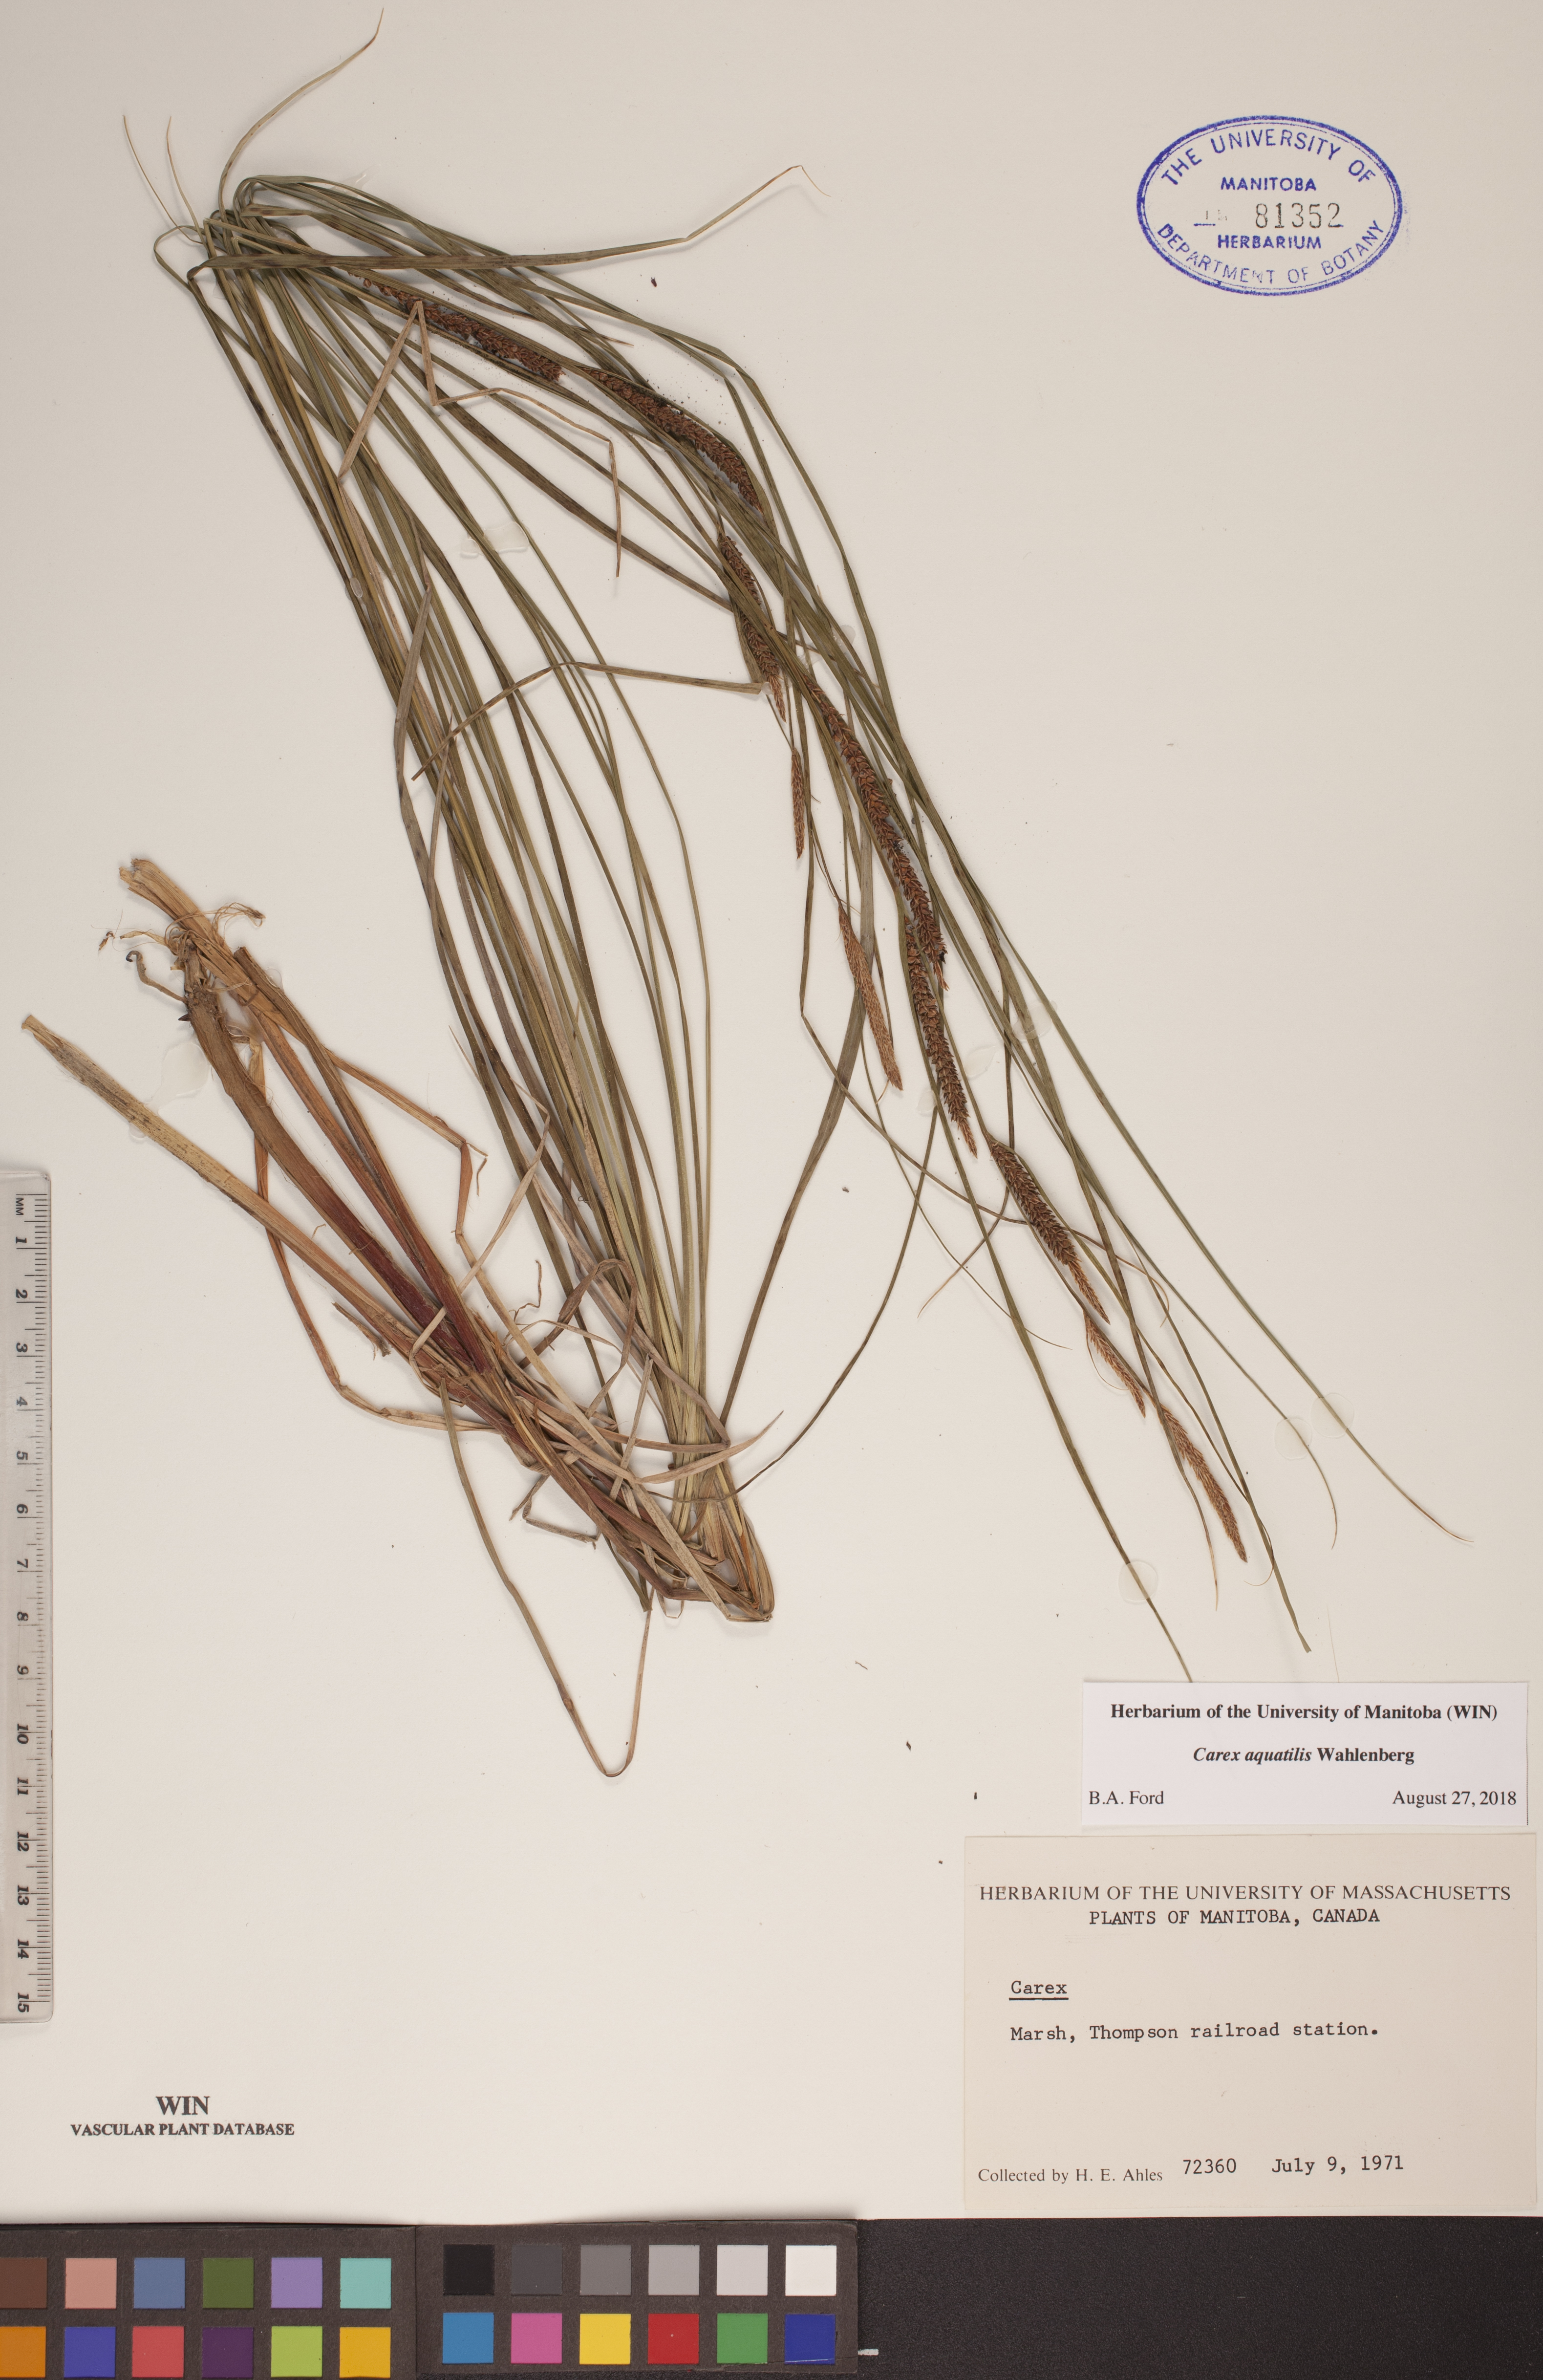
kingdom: Plantae
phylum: Tracheophyta
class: Liliopsida
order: Poales
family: Cyperaceae
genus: Carex
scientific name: Carex aquatilis
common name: Water sedge
